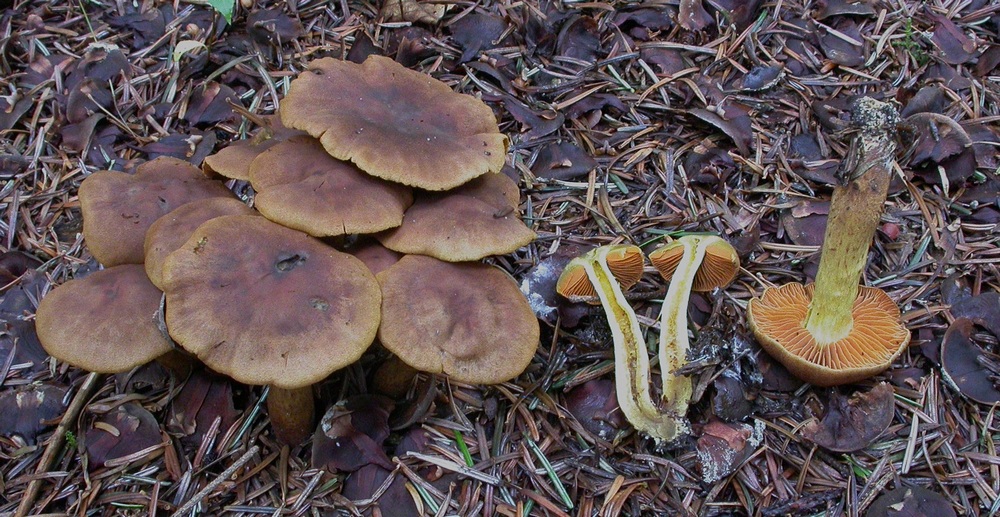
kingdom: Fungi
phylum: Basidiomycota
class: Agaricomycetes
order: Agaricales
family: Cortinariaceae
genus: Cortinarius
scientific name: Cortinarius malicorius
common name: grønkødet slørhat
